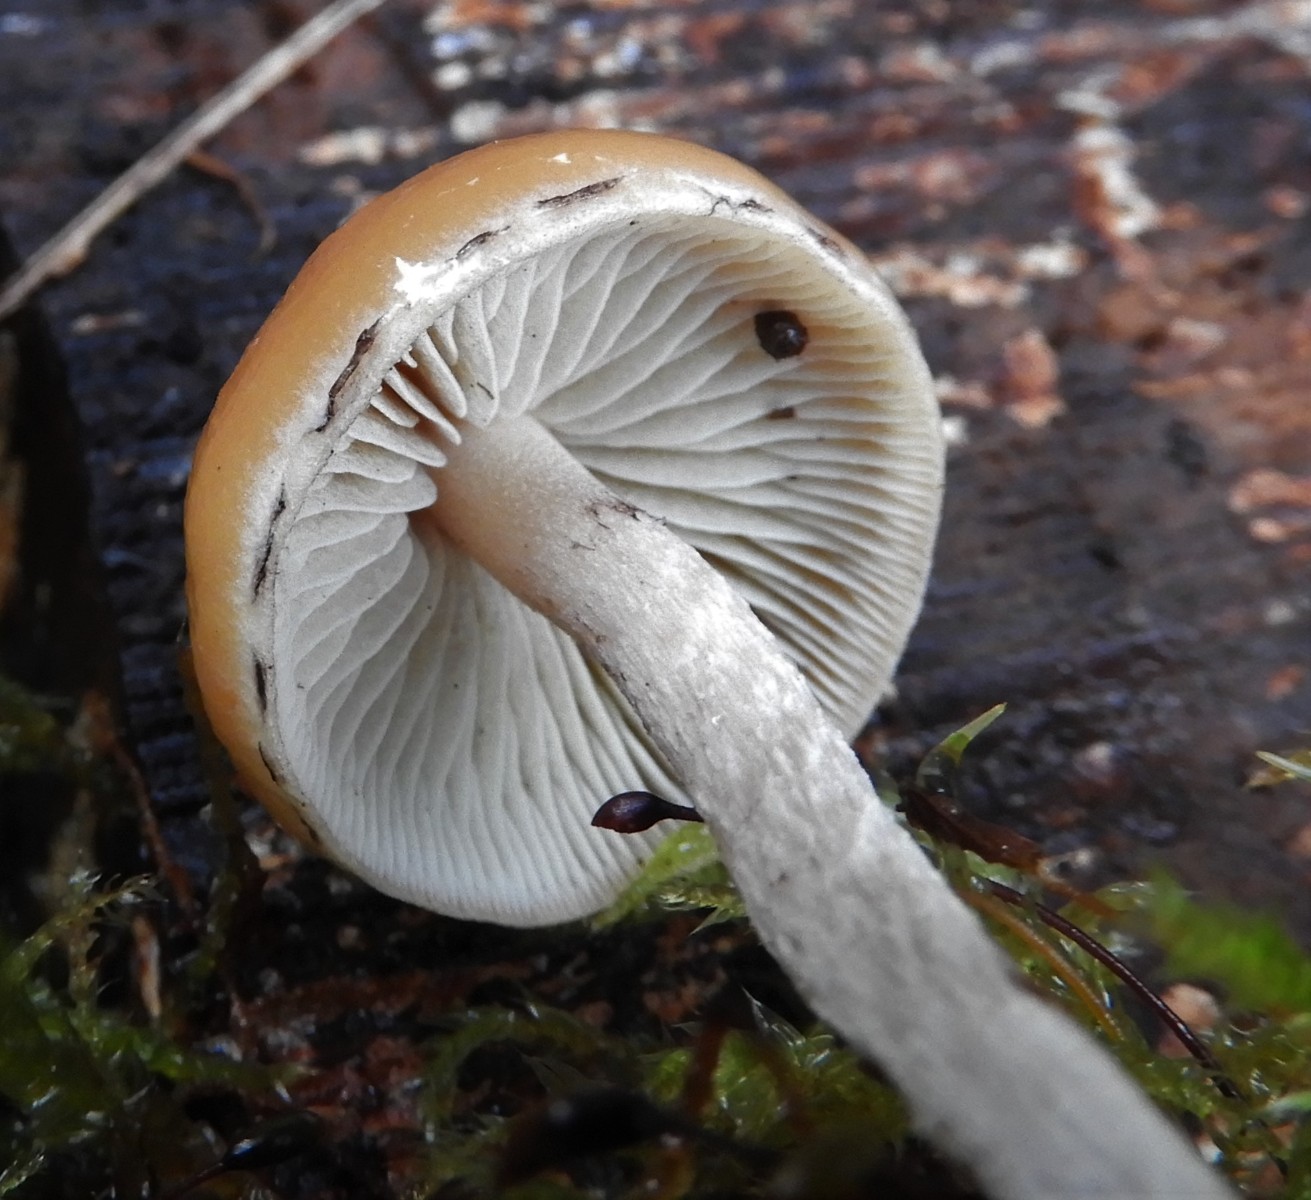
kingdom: Fungi
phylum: Basidiomycota
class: Agaricomycetes
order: Agaricales
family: Strophariaceae
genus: Hypholoma
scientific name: Hypholoma marginatum
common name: enlig svovlhat
